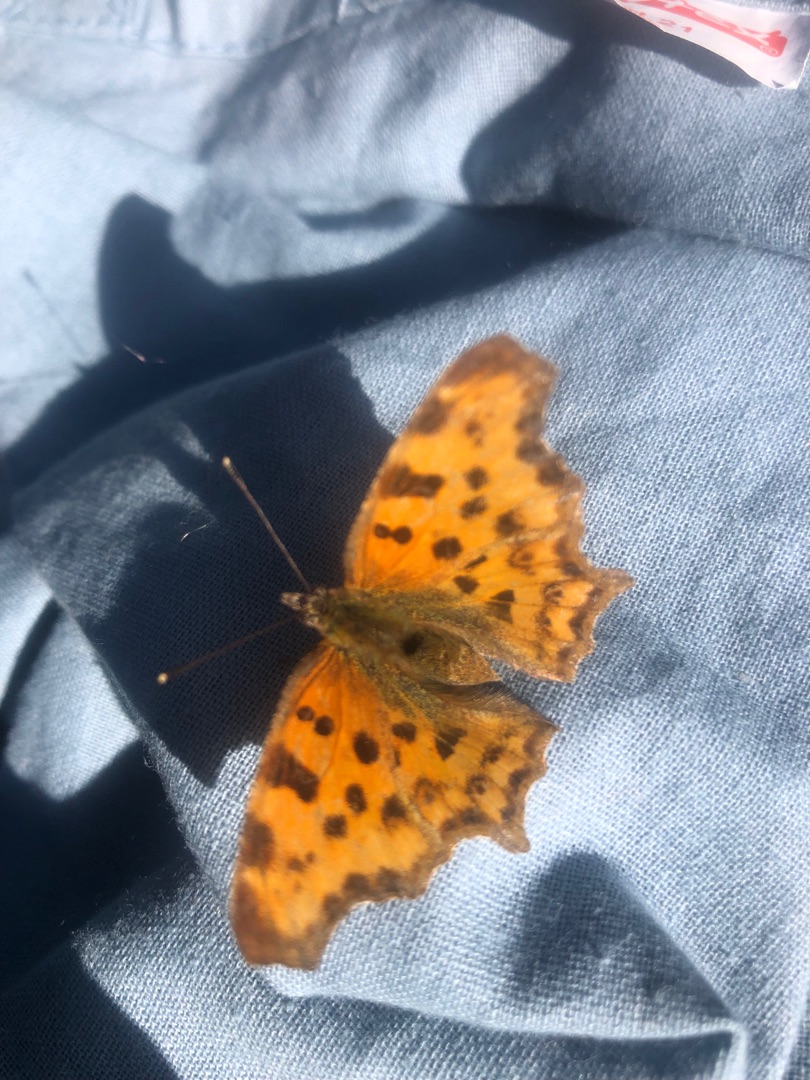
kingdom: Animalia
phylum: Arthropoda
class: Insecta
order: Lepidoptera
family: Nymphalidae
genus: Polygonia
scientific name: Polygonia c-album
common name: Det hvide C
